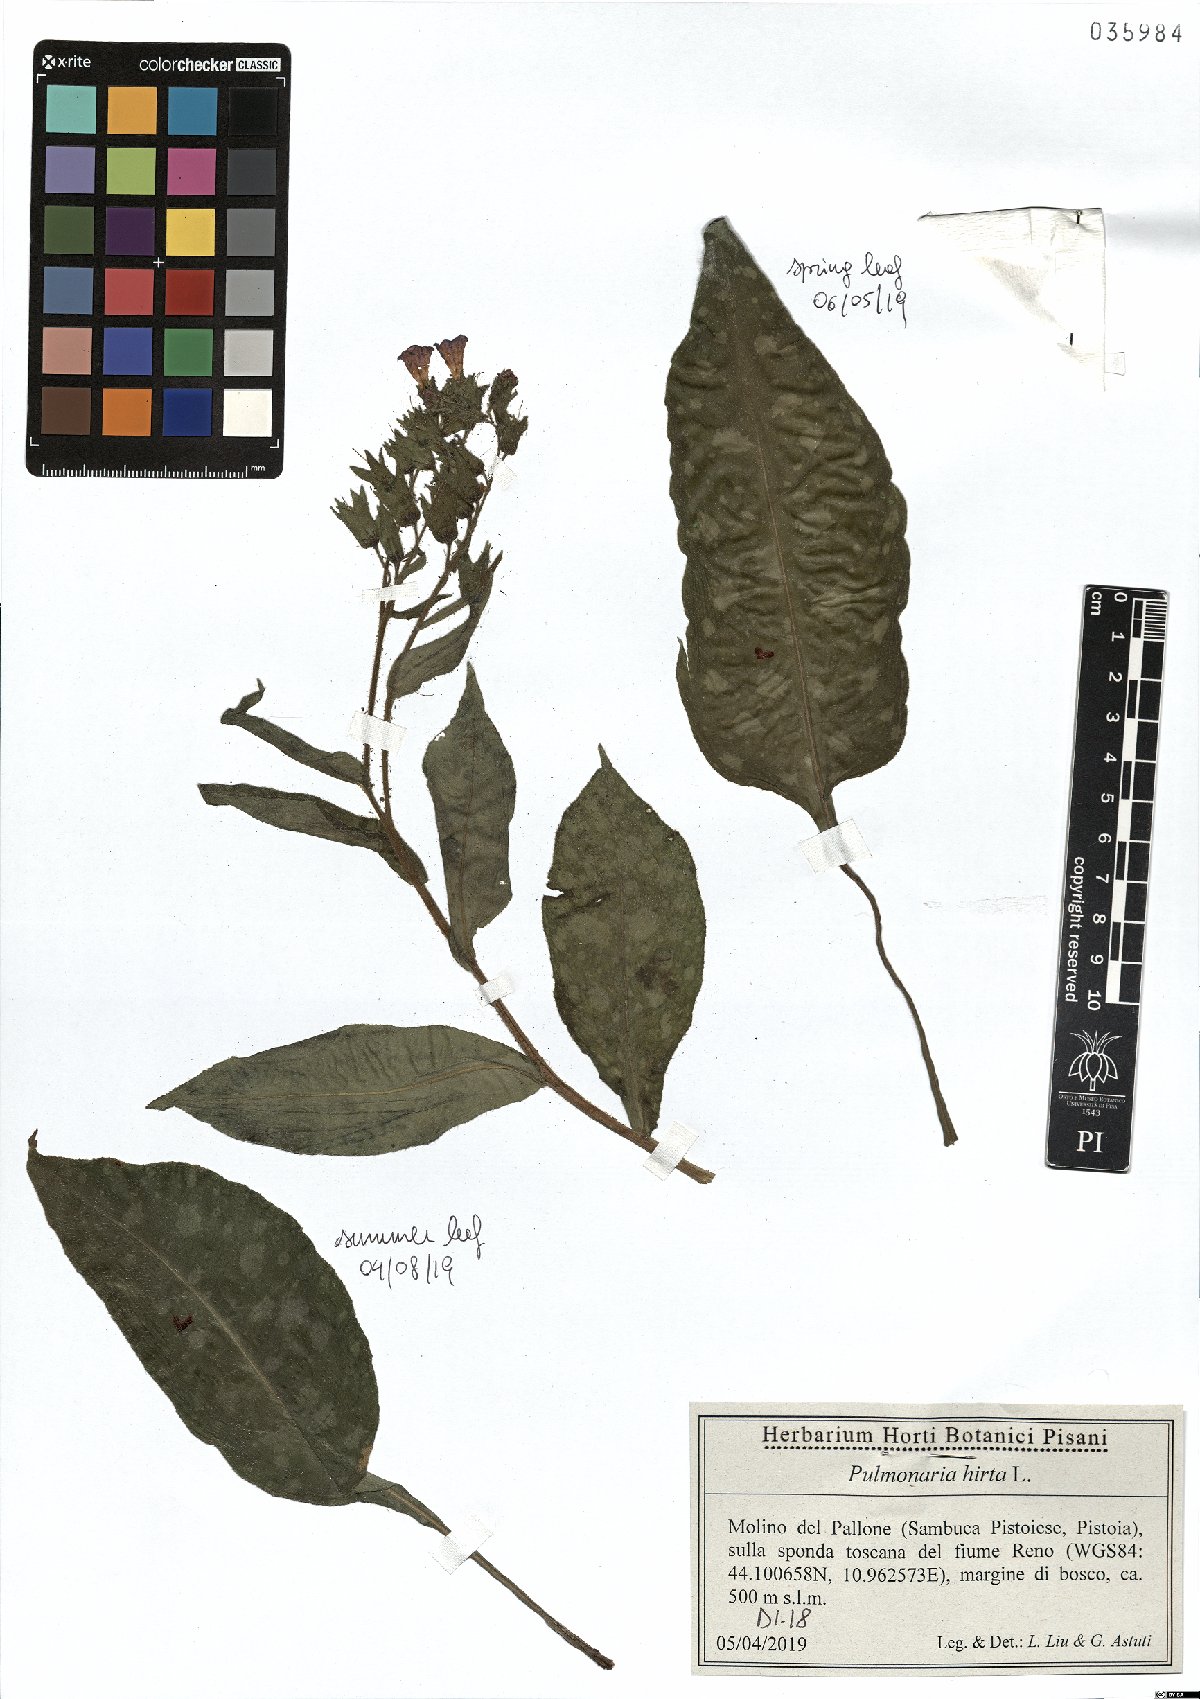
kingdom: Plantae
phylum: Tracheophyta
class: Magnoliopsida
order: Boraginales
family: Boraginaceae
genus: Pulmonaria
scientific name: Pulmonaria hirta
